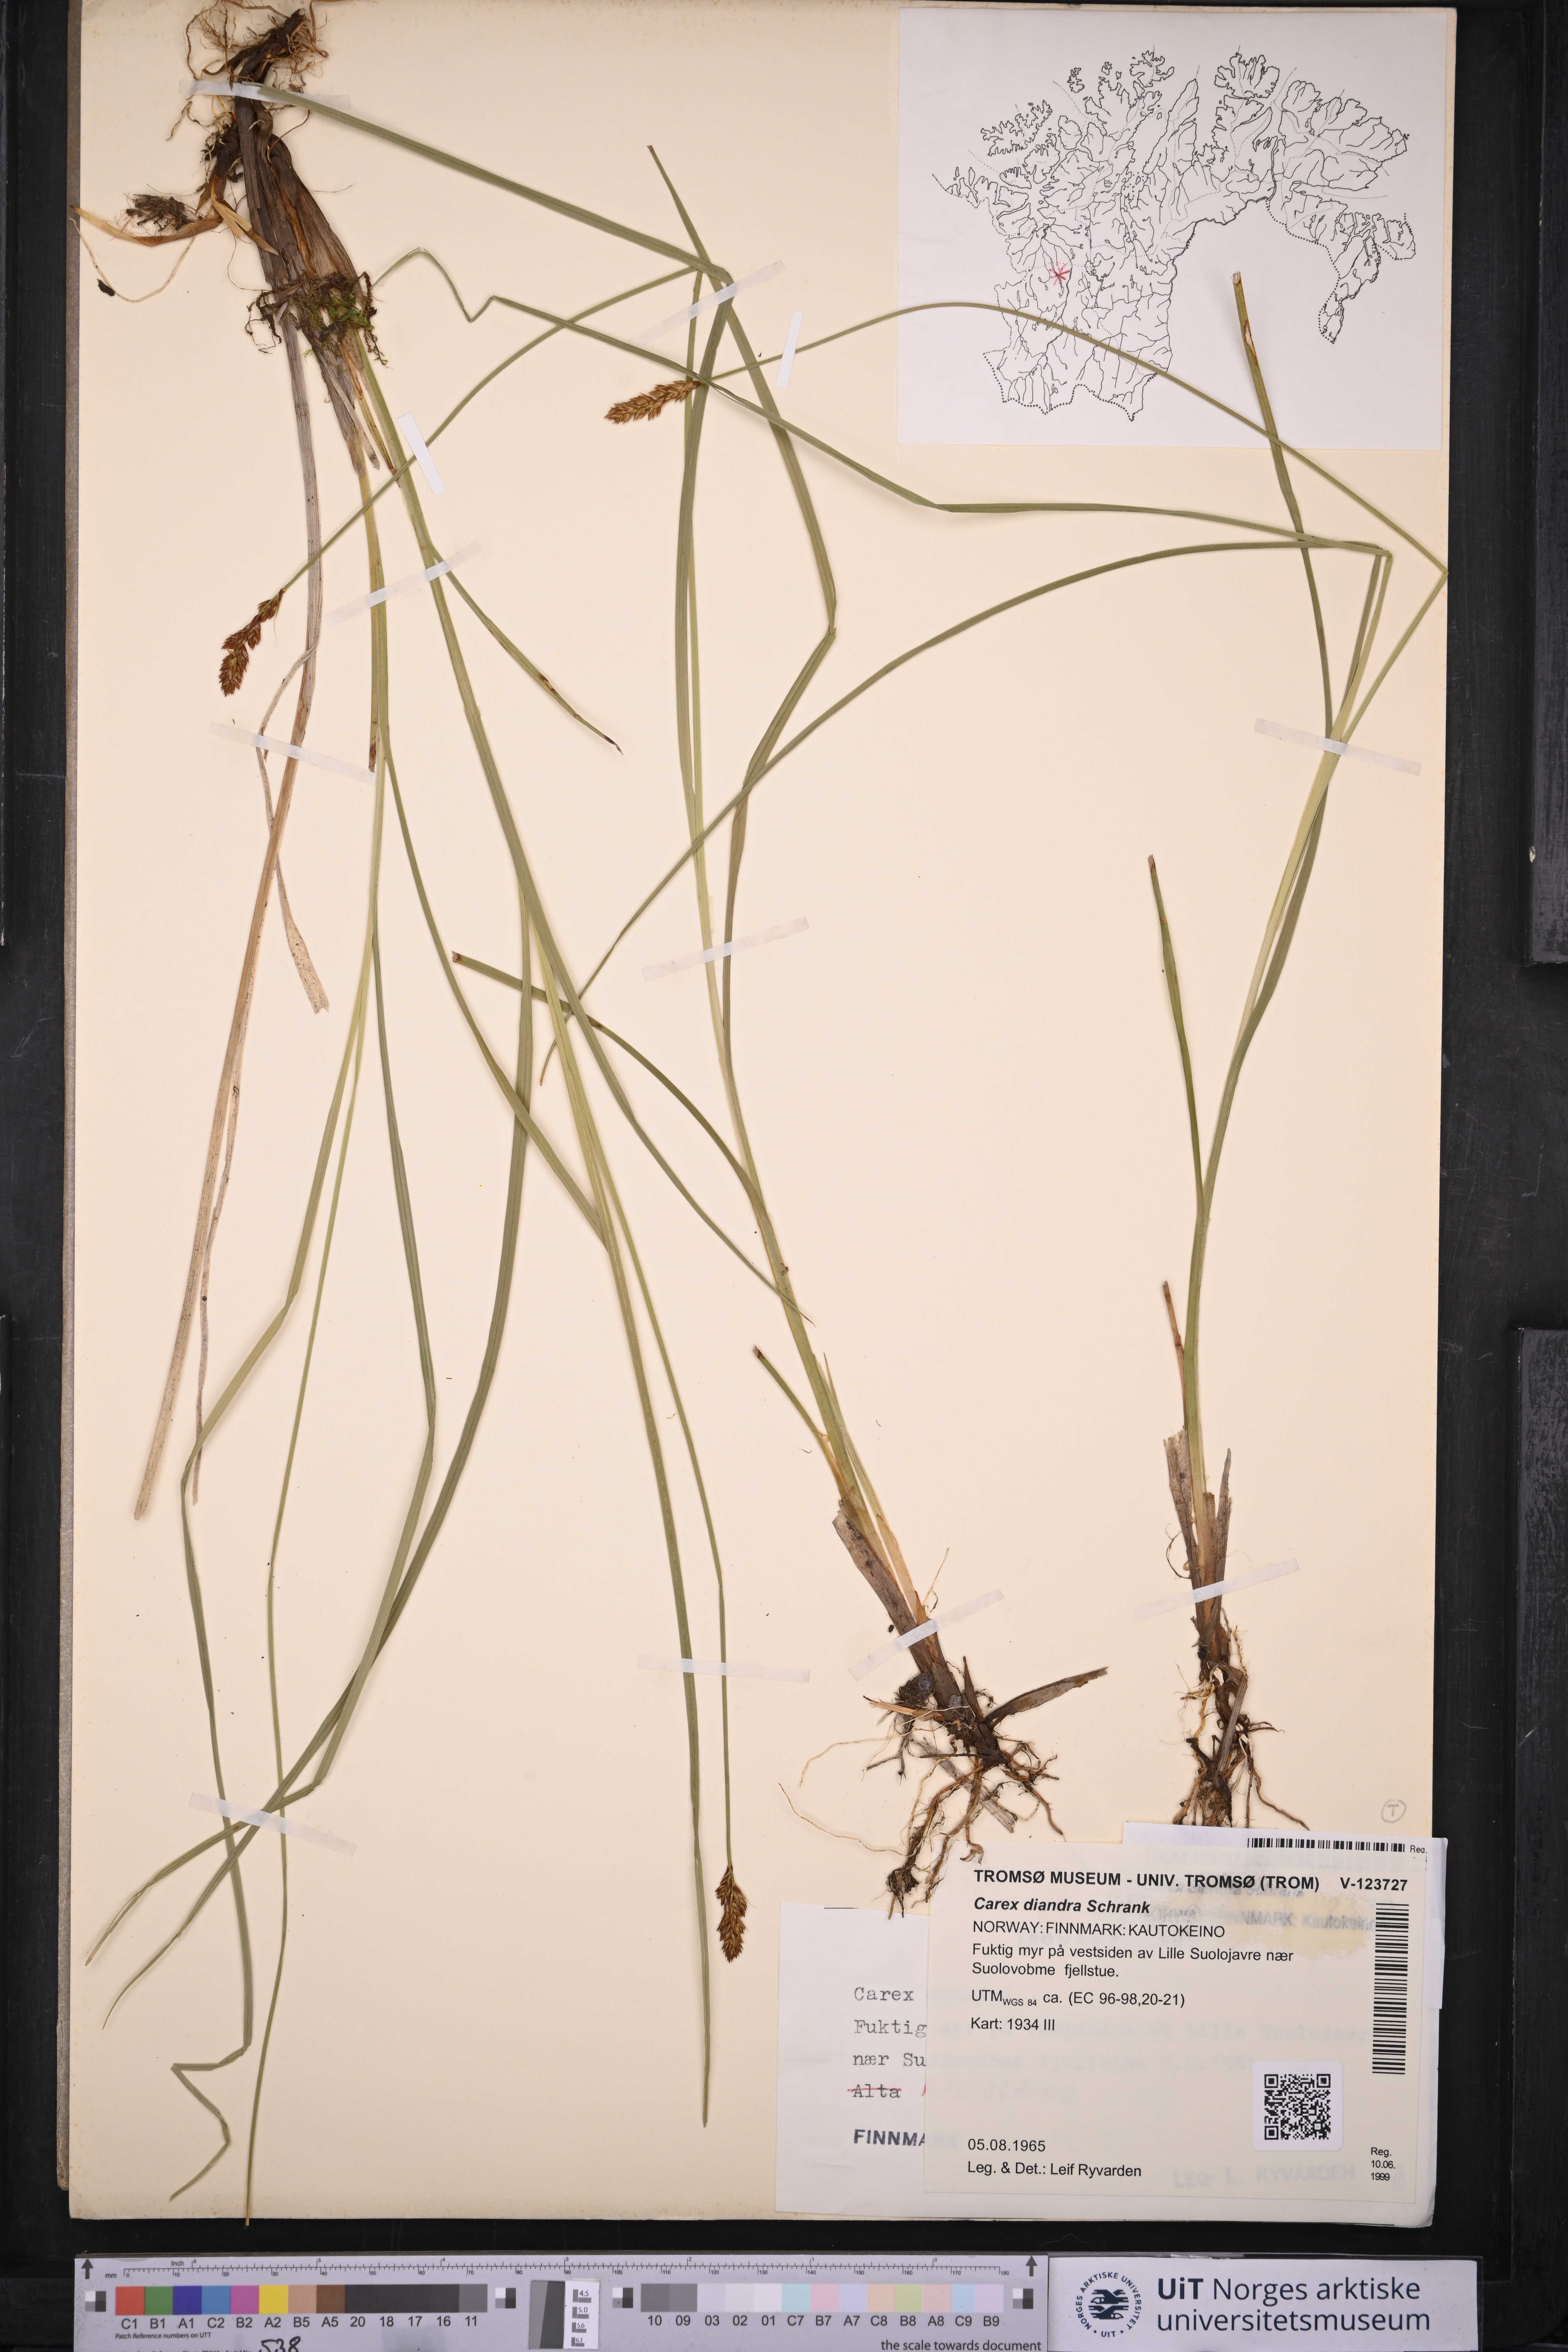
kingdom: Plantae
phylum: Tracheophyta
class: Liliopsida
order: Poales
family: Cyperaceae
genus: Carex
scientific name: Carex diandra
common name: Lesser tussock-sedge
